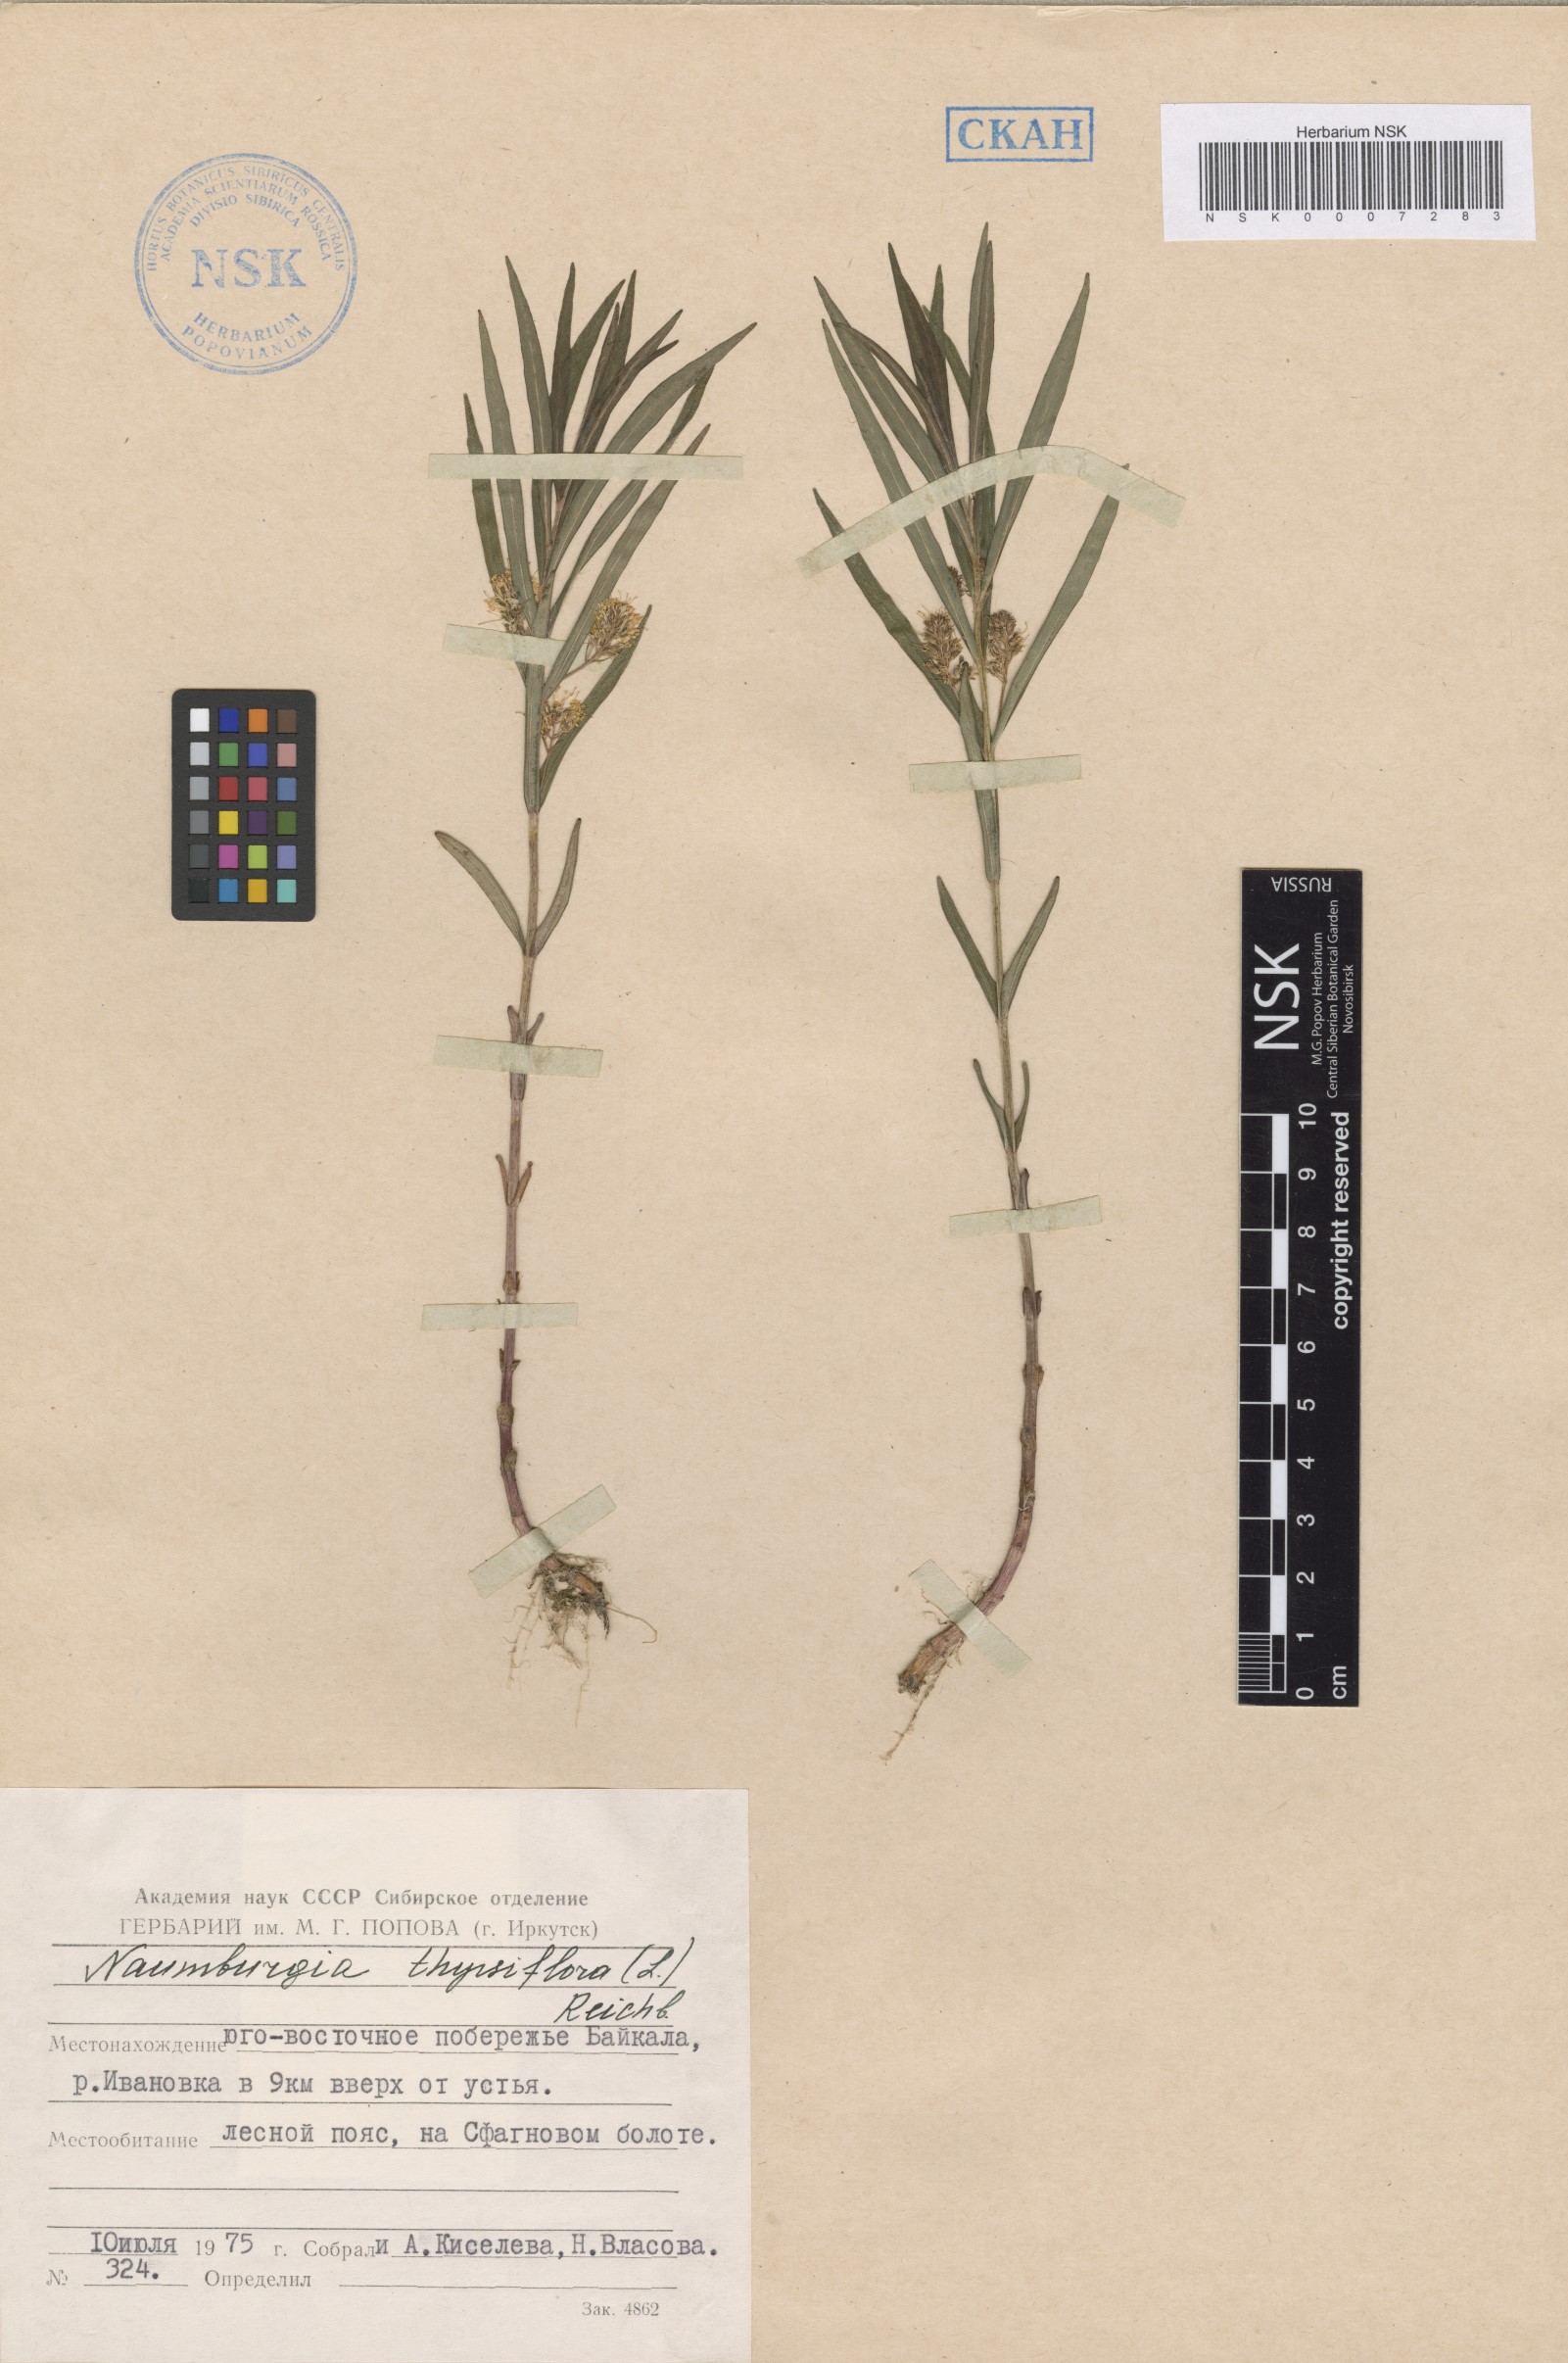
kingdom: Plantae
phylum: Tracheophyta
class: Magnoliopsida
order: Ericales
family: Primulaceae
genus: Lysimachia
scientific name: Lysimachia thyrsiflora
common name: Tufted loosestrife
